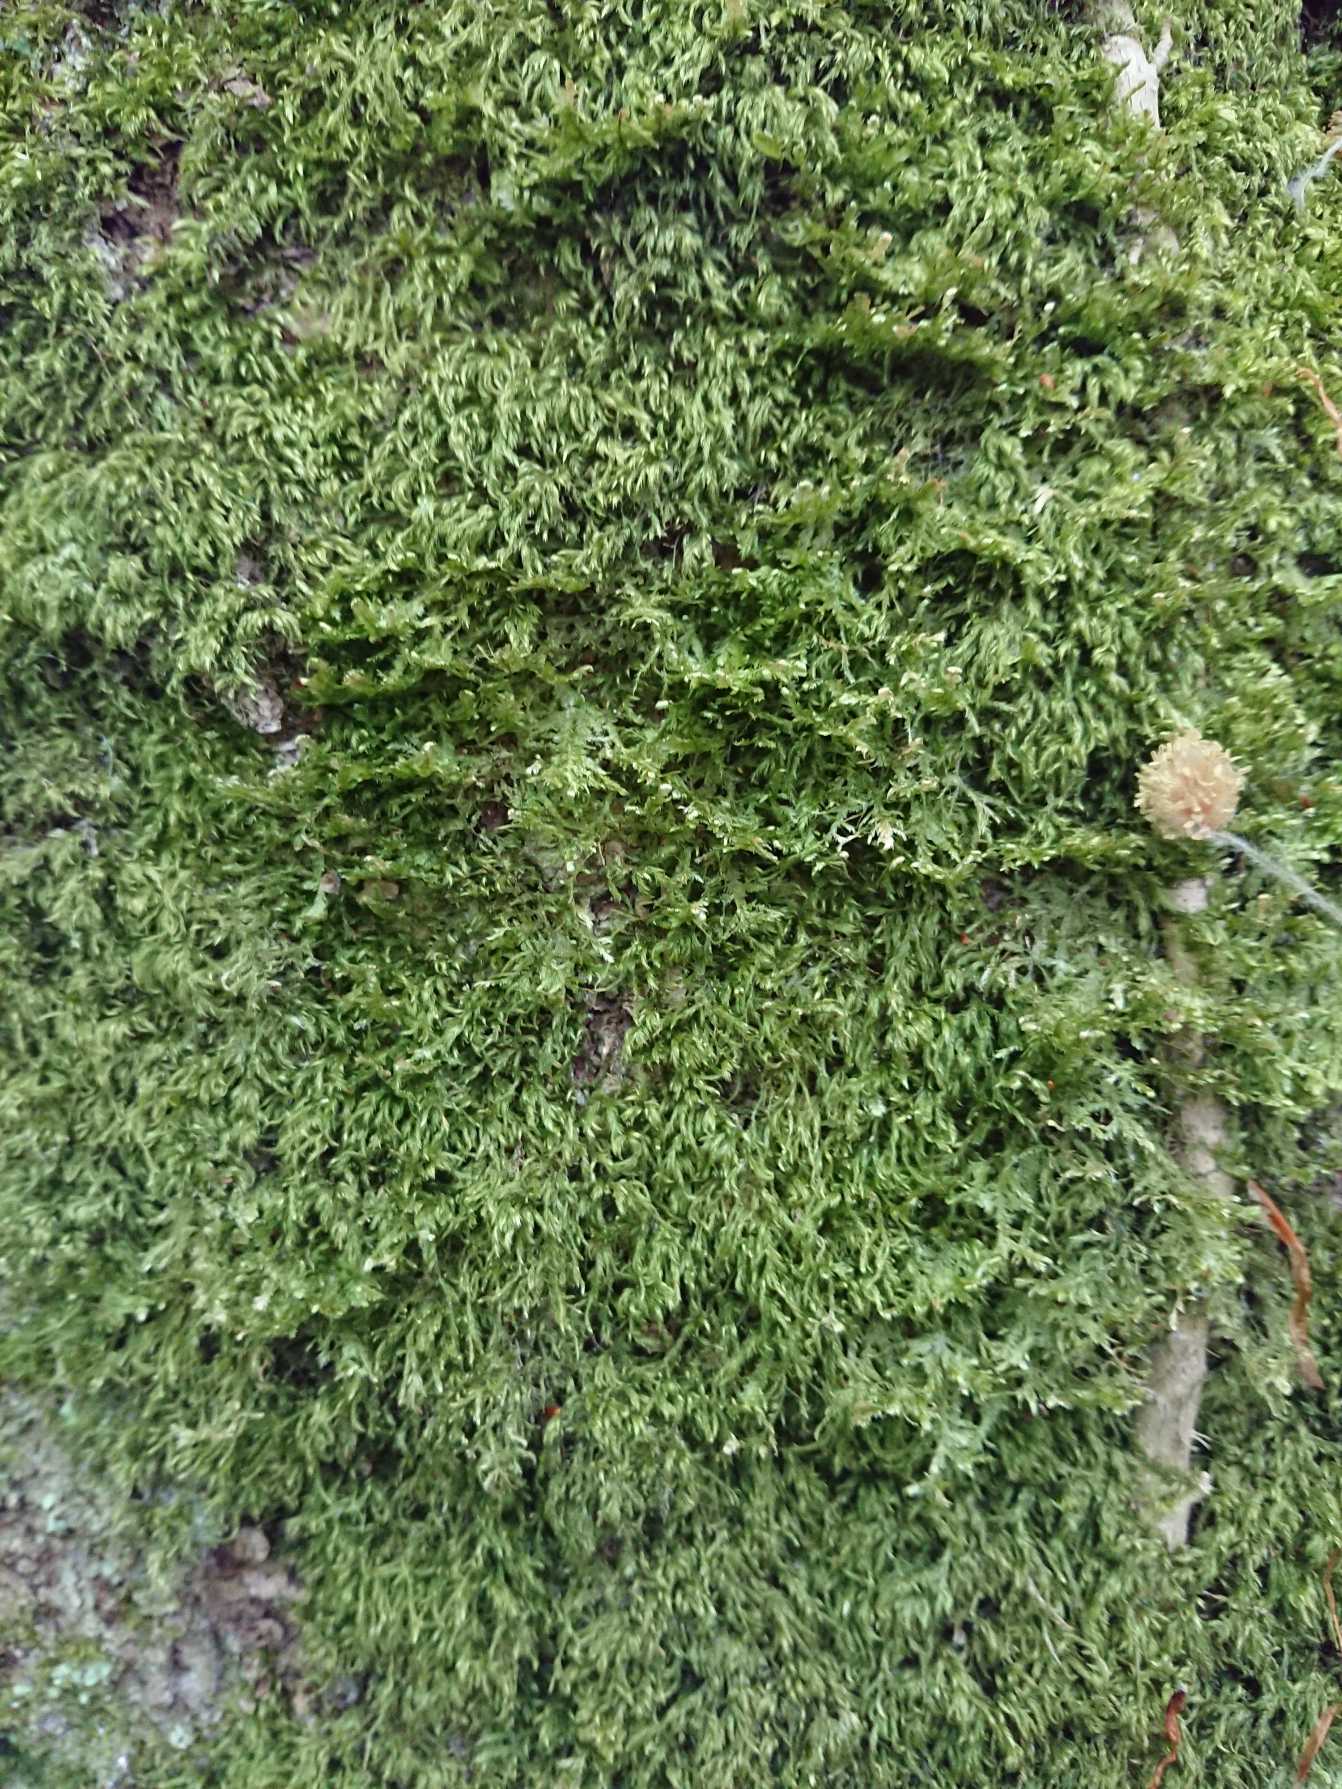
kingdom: Plantae
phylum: Bryophyta
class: Bryopsida
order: Hypnales
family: Neckeraceae
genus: Alleniella
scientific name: Alleniella complanata
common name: Almindelig fladmos
